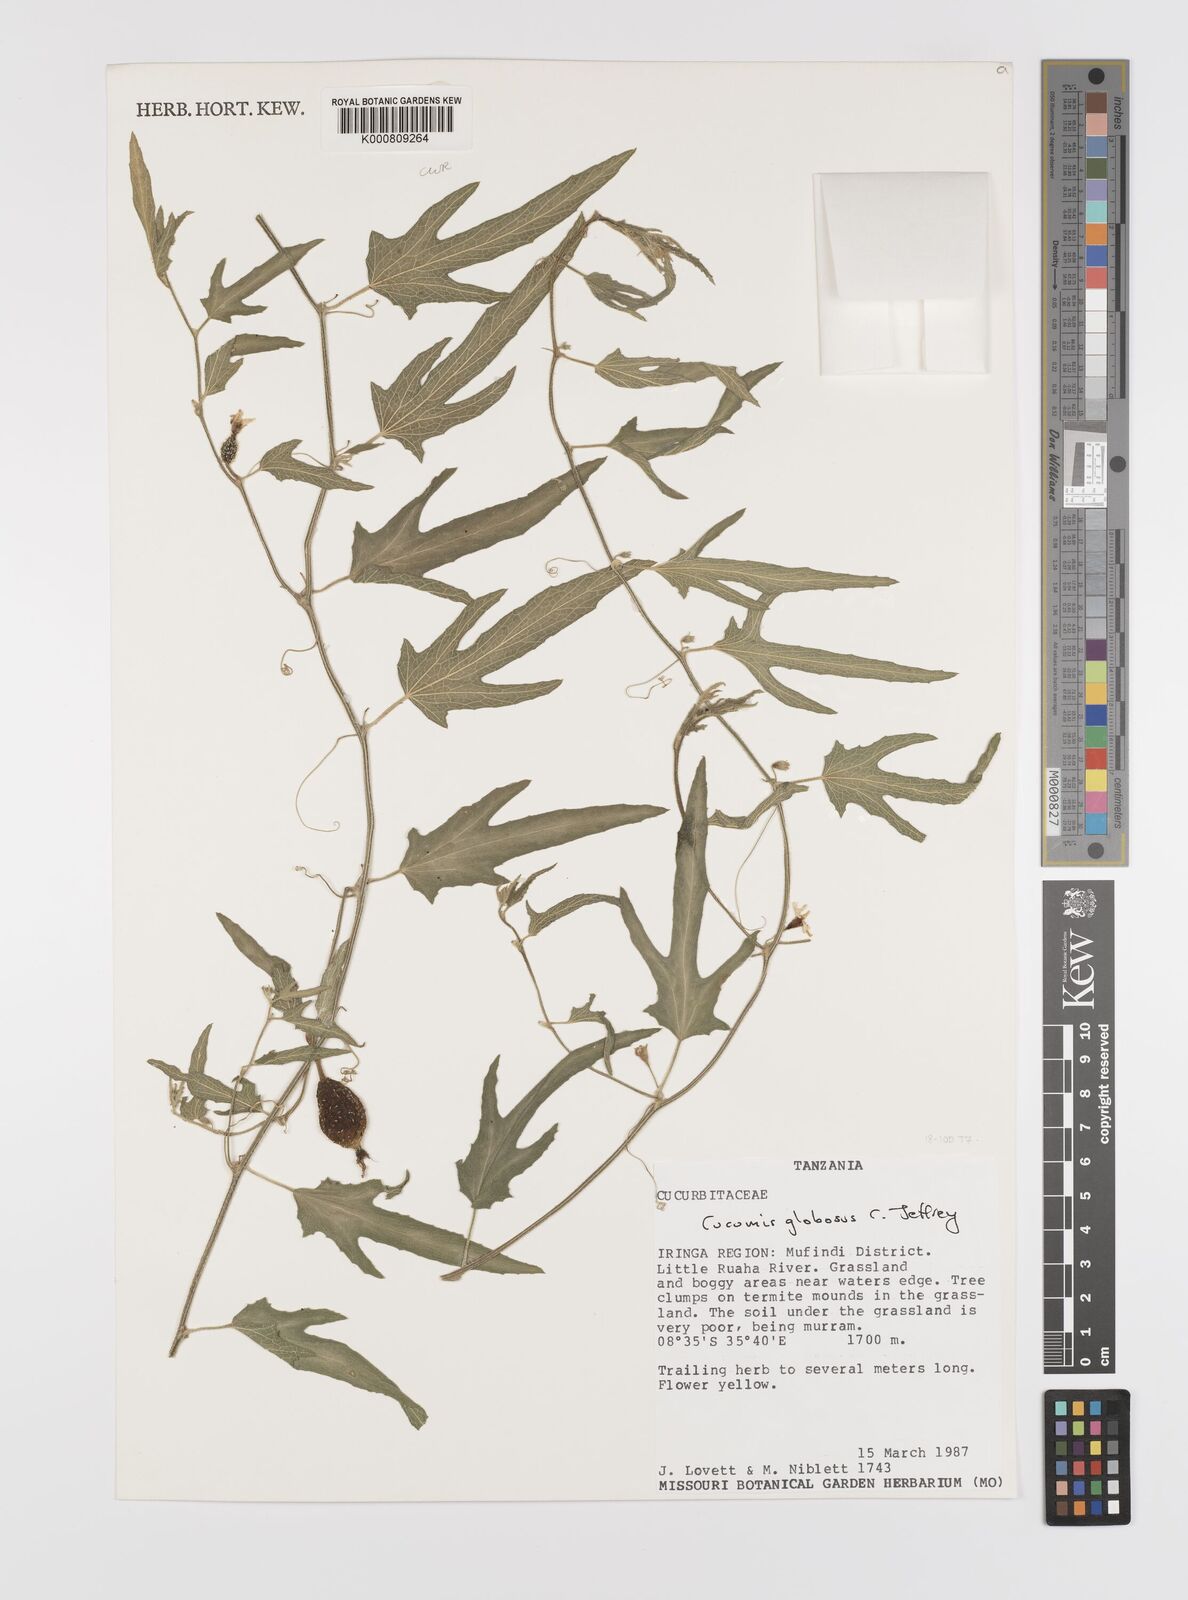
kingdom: Plantae
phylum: Tracheophyta
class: Magnoliopsida
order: Cucurbitales
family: Cucurbitaceae
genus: Cucumis
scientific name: Cucumis globosus
